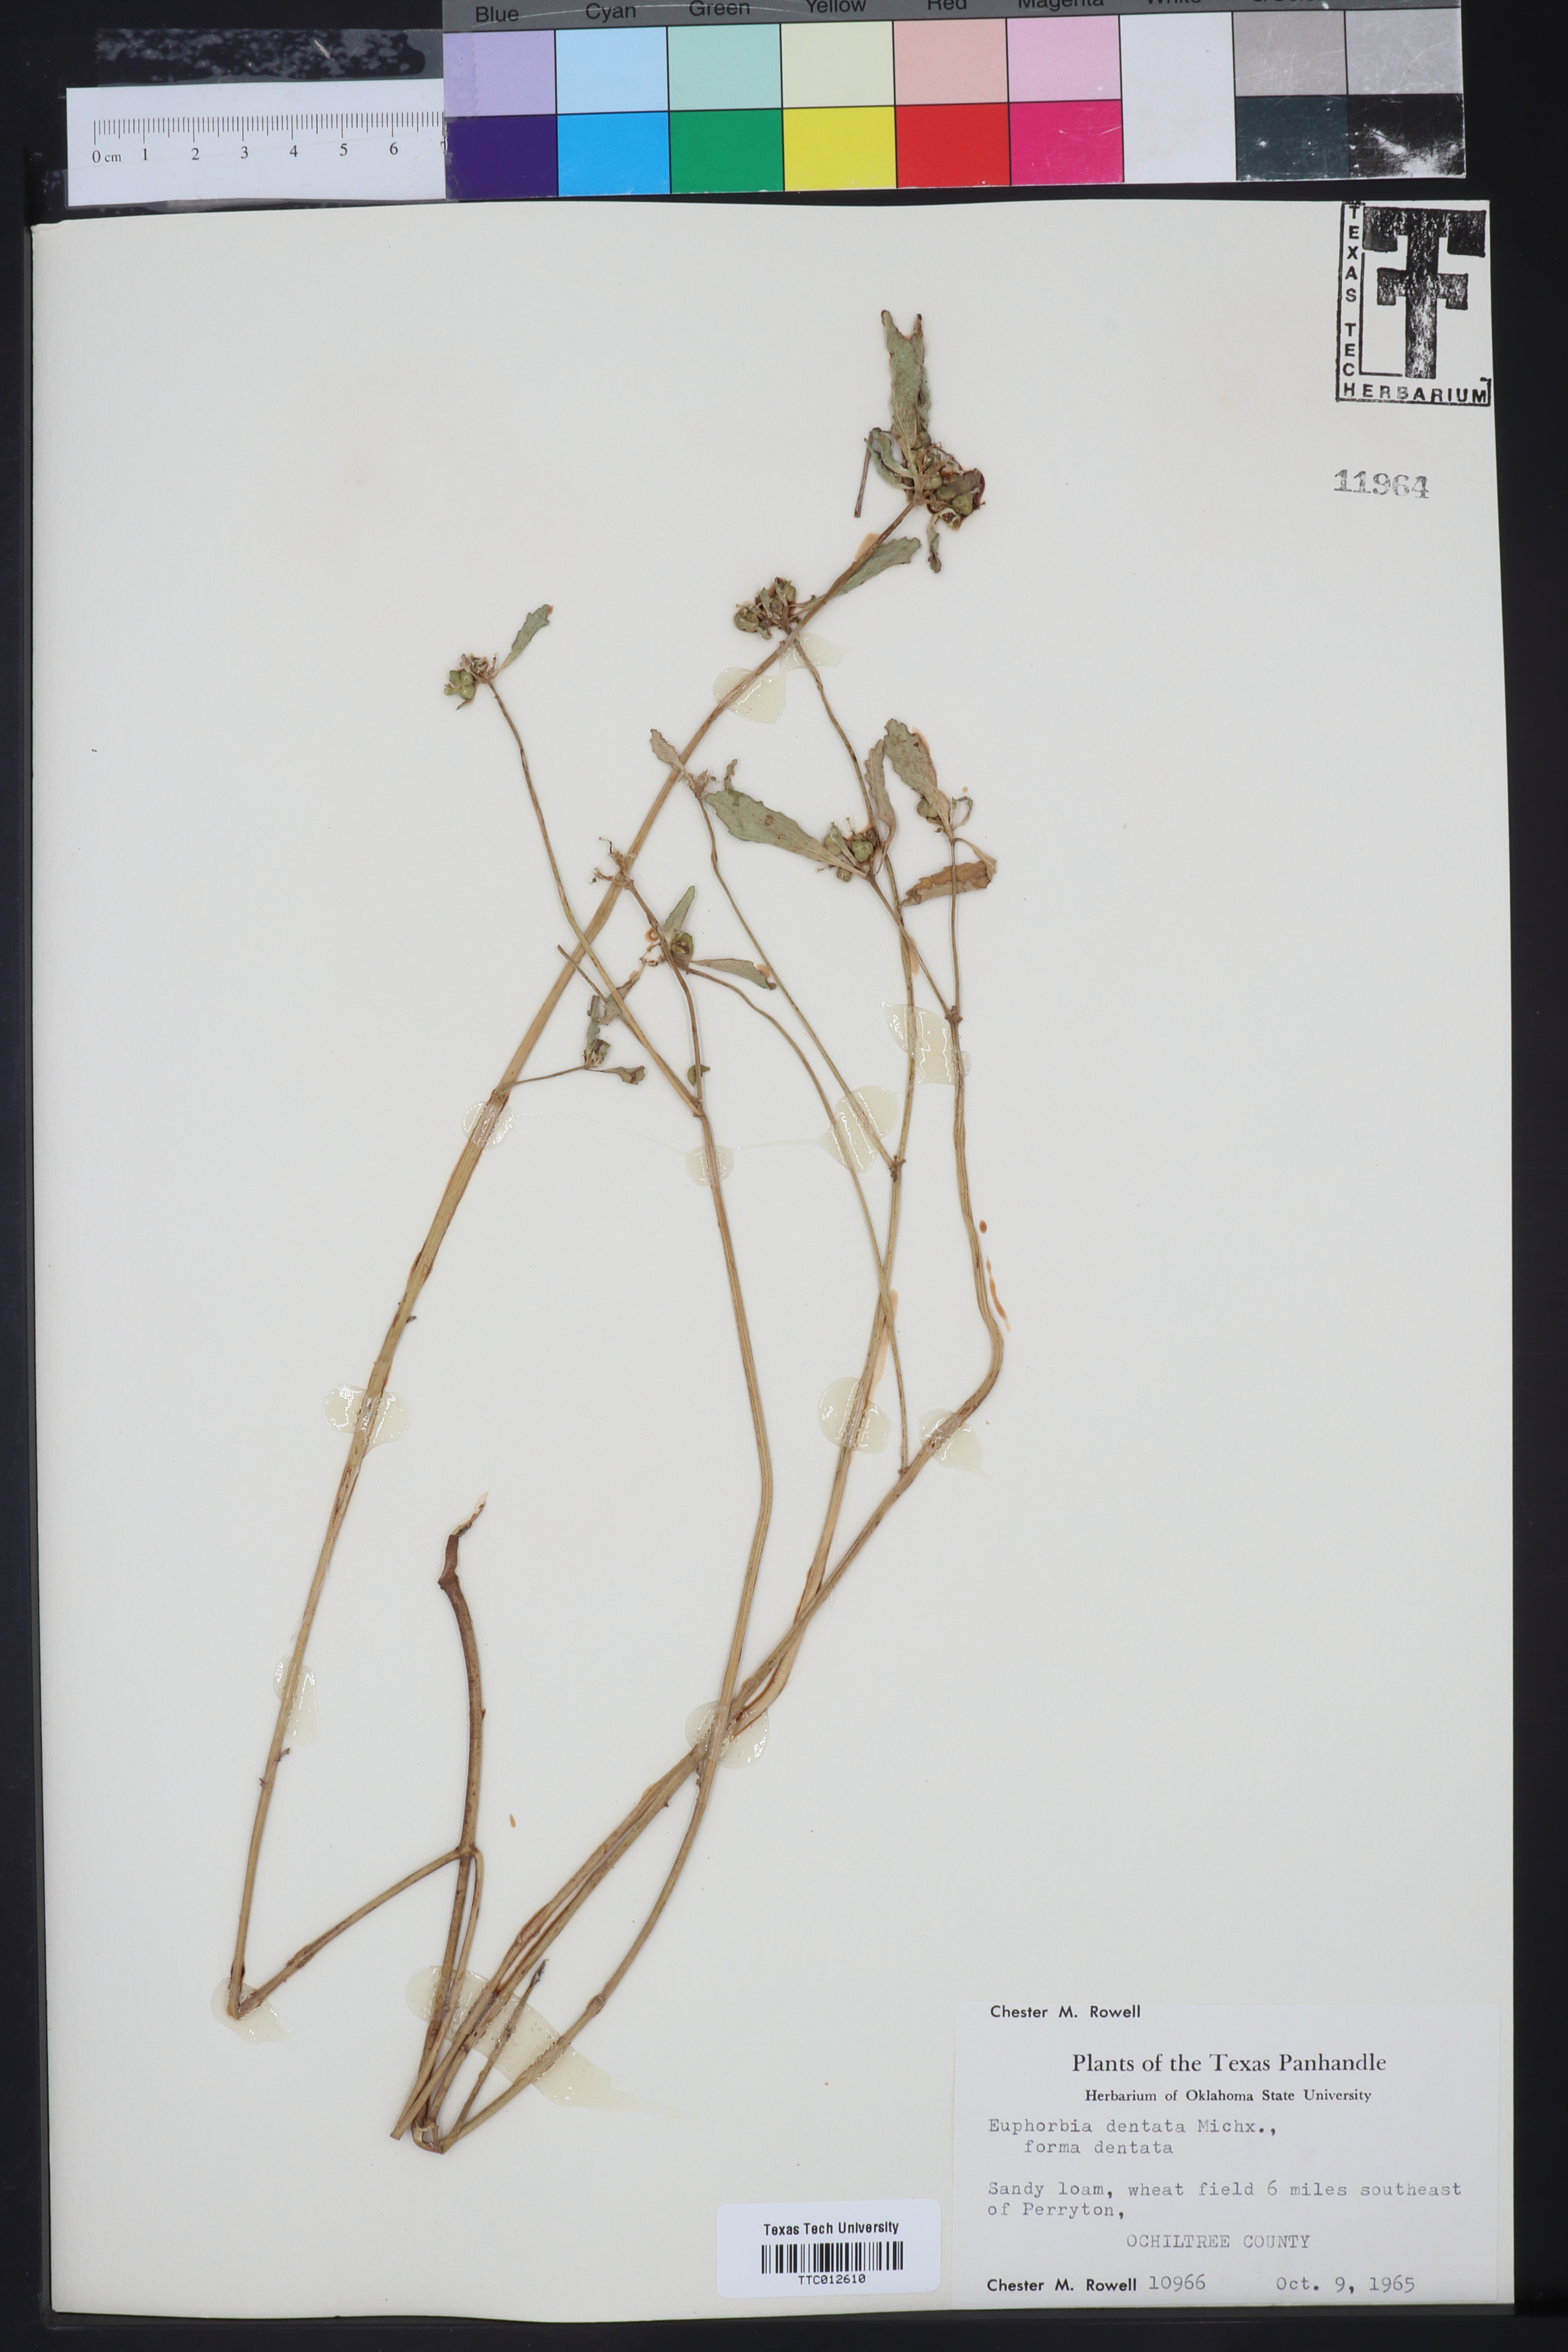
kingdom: Plantae
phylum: Tracheophyta
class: Magnoliopsida
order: Malpighiales
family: Euphorbiaceae
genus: Euphorbia
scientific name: Euphorbia dentata
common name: Dentate spurge
